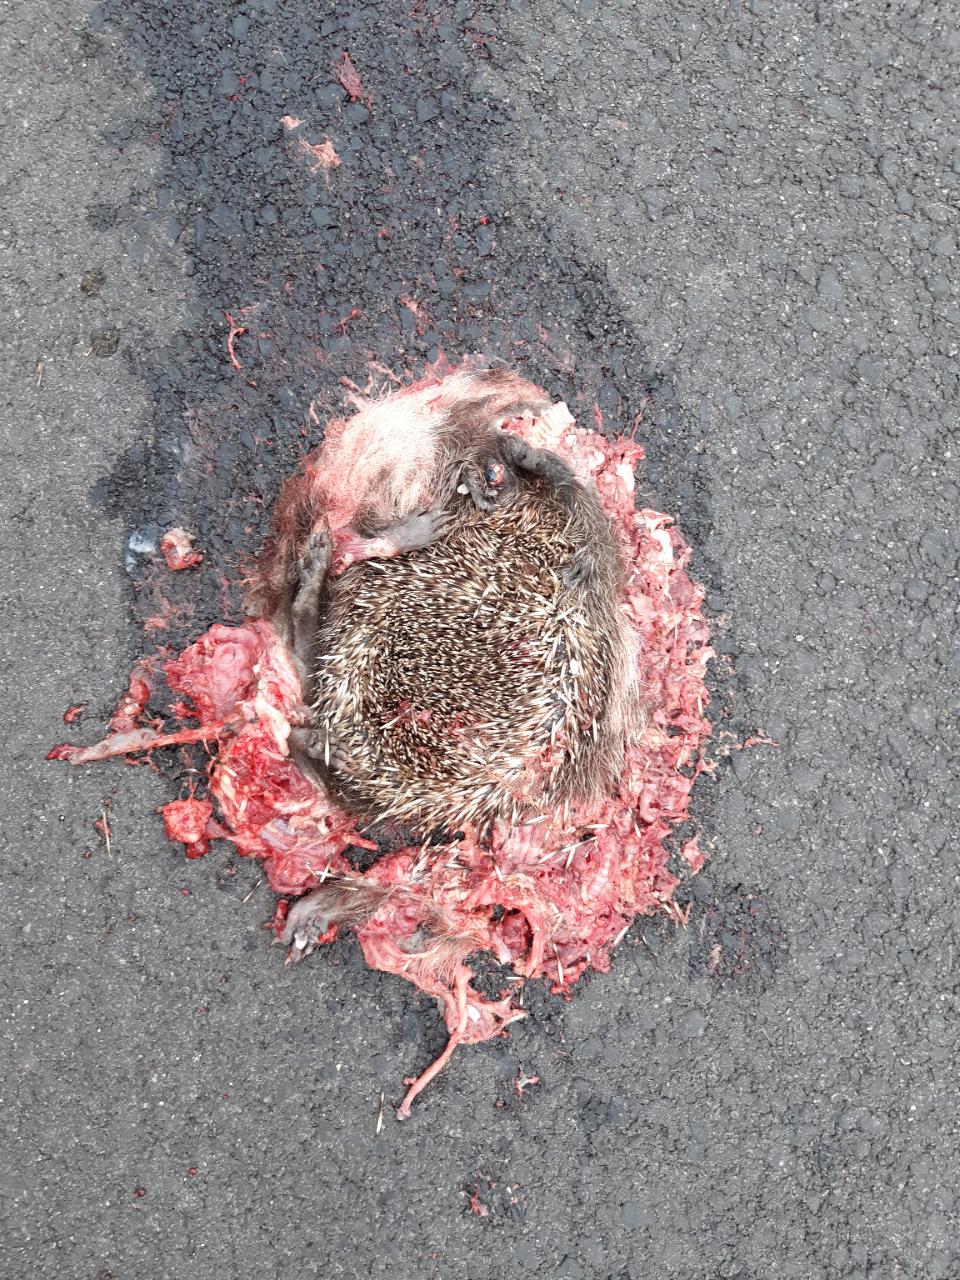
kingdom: Animalia
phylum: Chordata
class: Mammalia
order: Erinaceomorpha
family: Erinaceidae
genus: Erinaceus
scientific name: Erinaceus
